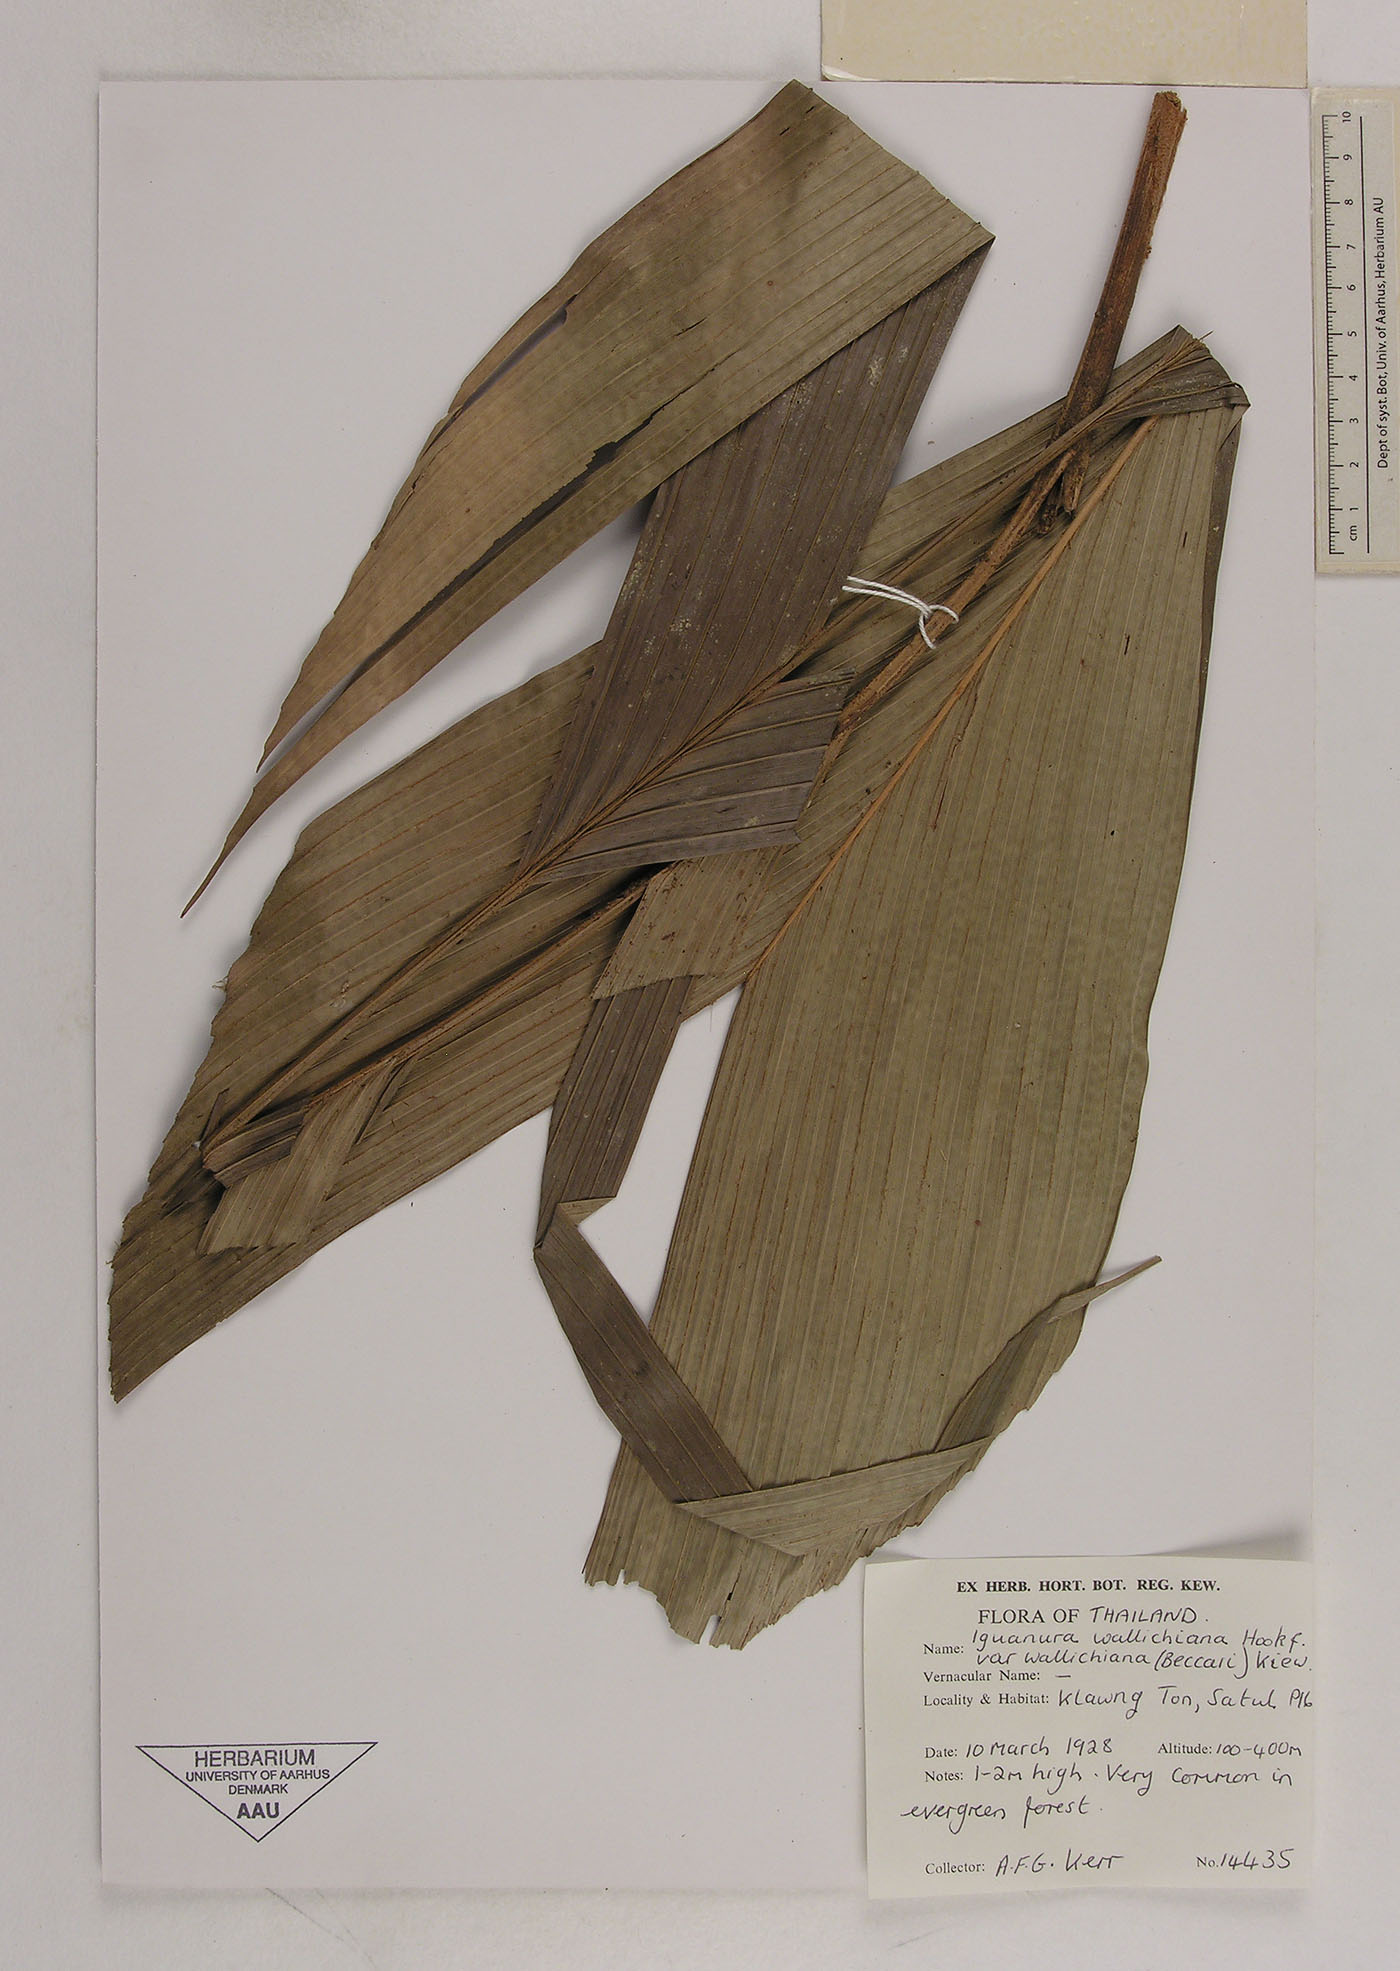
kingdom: Plantae
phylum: Tracheophyta
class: Liliopsida
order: Arecales
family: Arecaceae
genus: Iguanura
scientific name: Iguanura wallichiana
